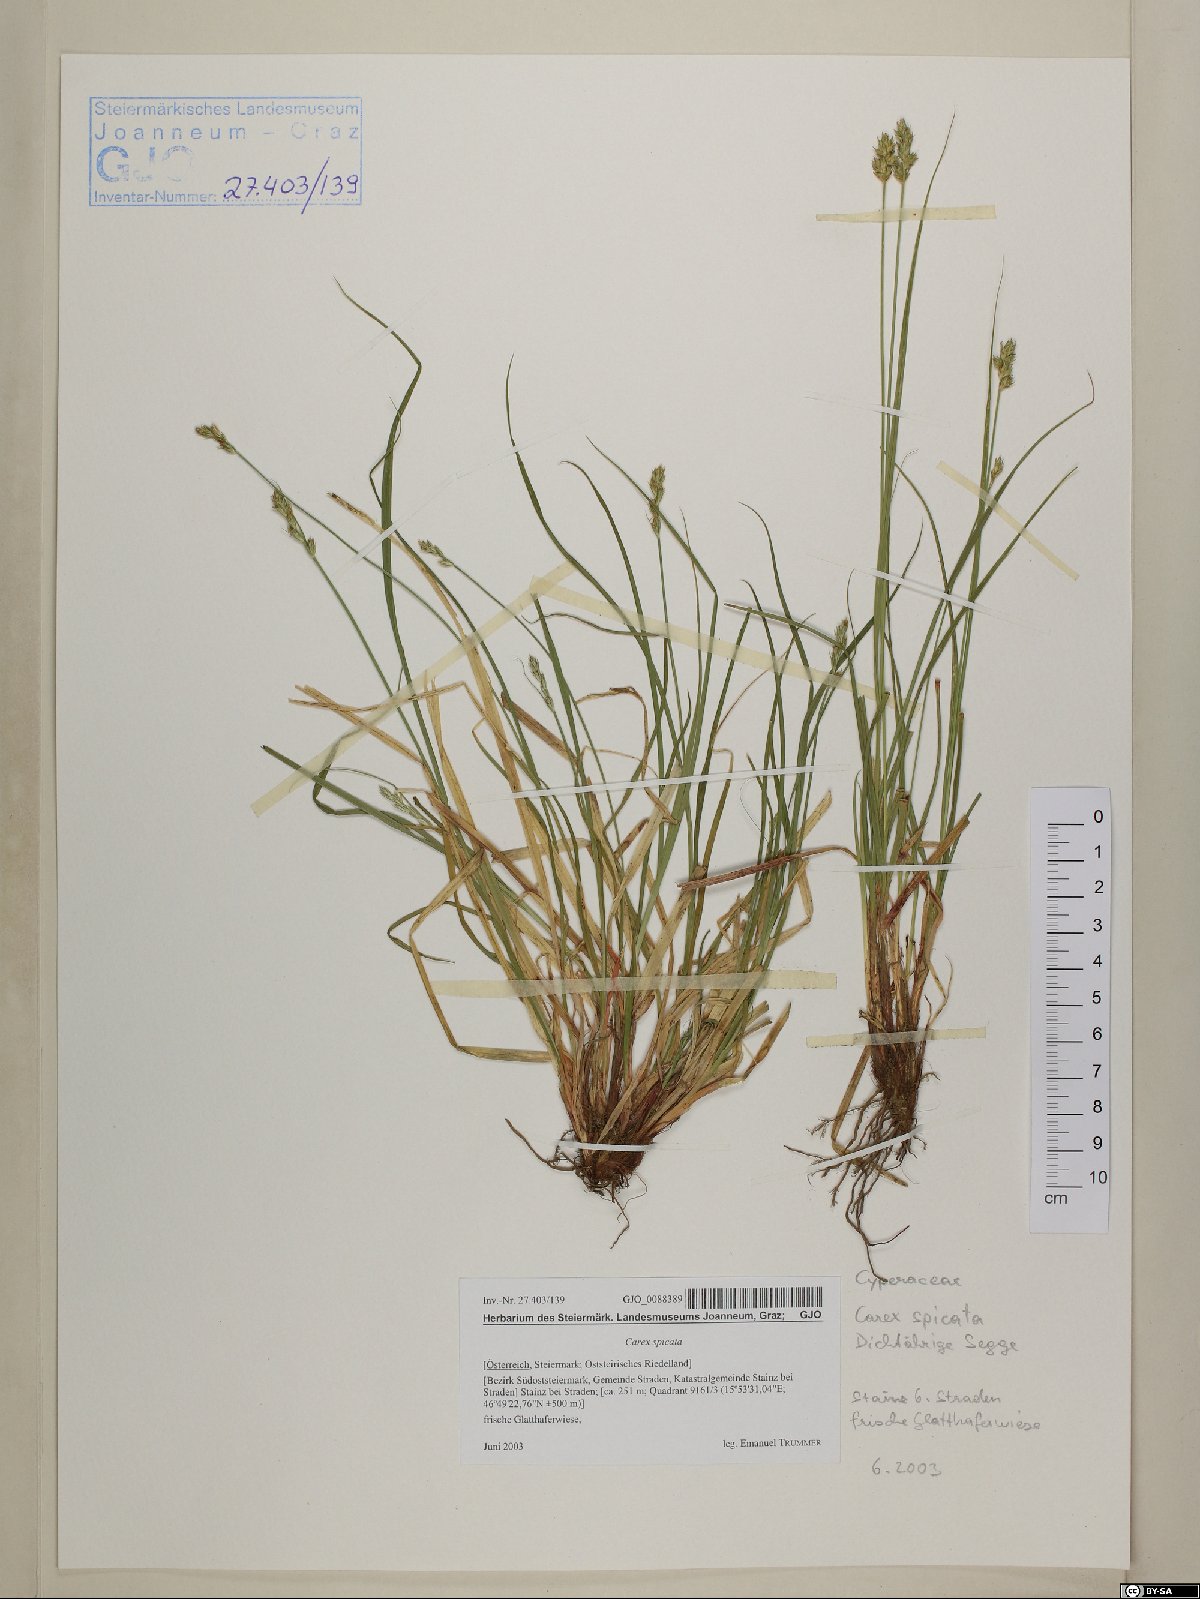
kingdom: Plantae
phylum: Tracheophyta
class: Liliopsida
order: Poales
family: Cyperaceae
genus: Carex
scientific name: Carex spicata
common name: Spiked sedge
